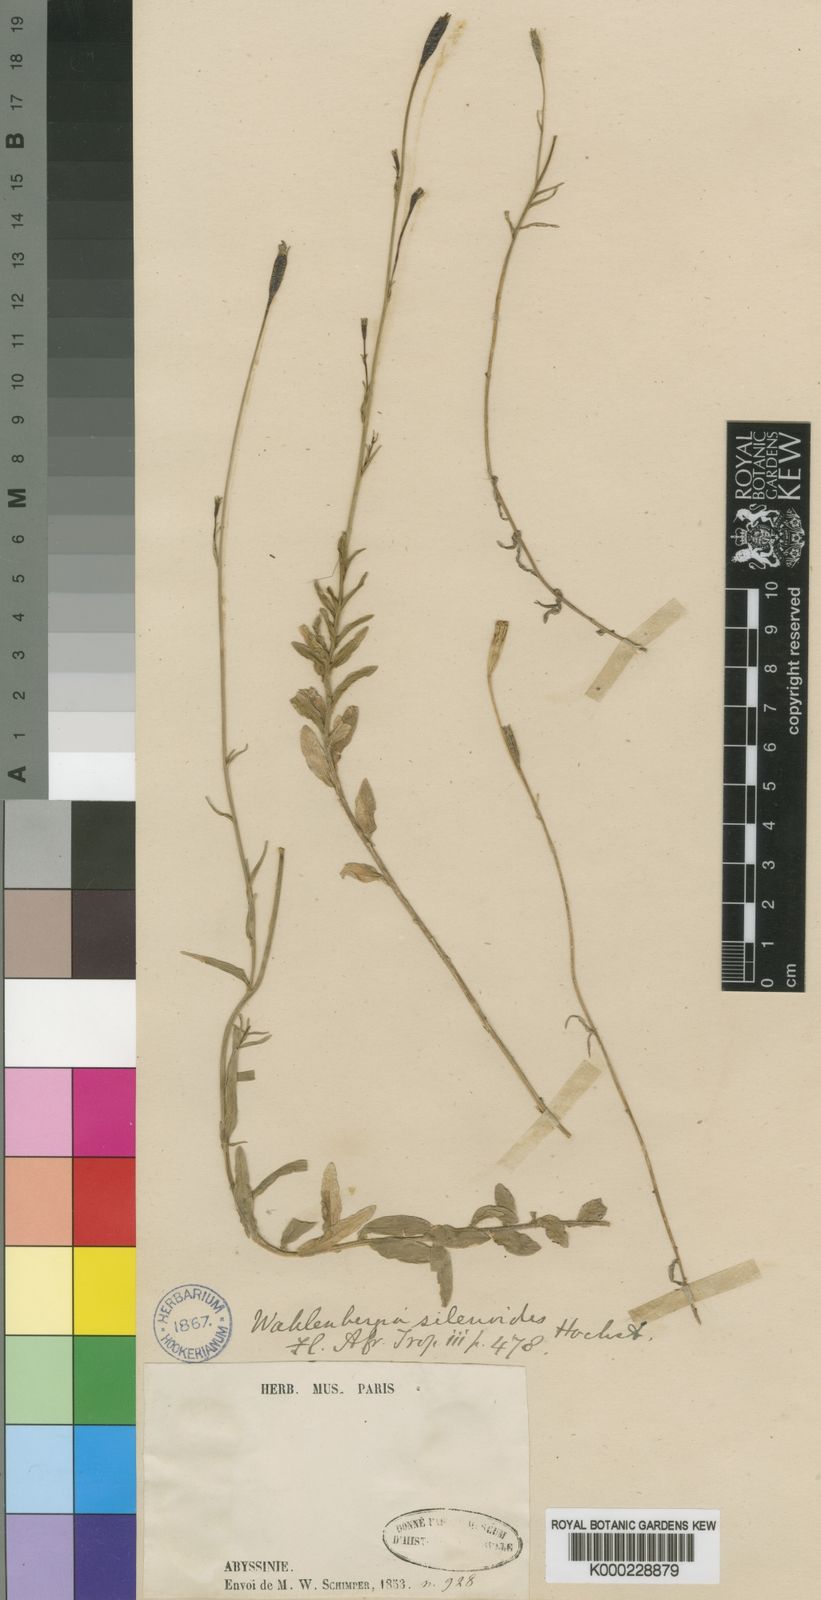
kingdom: Plantae
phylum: Tracheophyta
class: Magnoliopsida
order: Asterales
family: Campanulaceae
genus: Wahlenbergia
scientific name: Wahlenbergia silenoides
